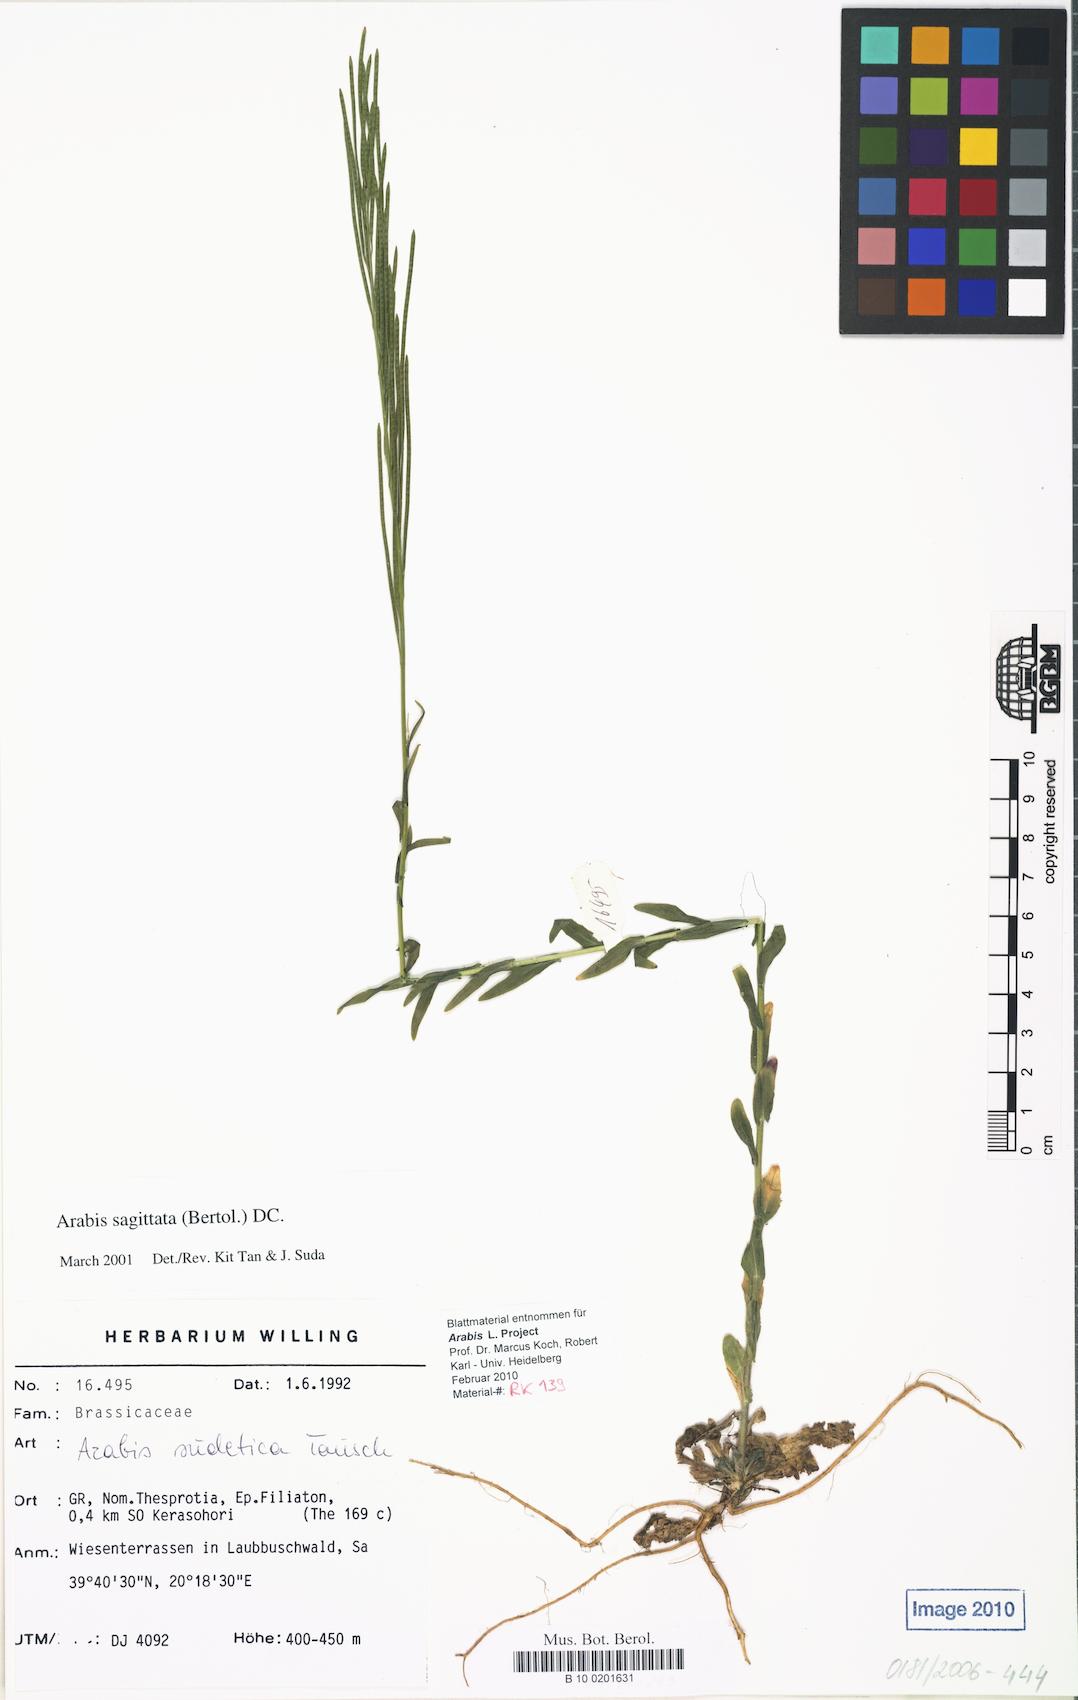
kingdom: Plantae
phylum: Tracheophyta
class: Magnoliopsida
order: Brassicales
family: Brassicaceae
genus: Arabis
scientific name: Arabis sudetica
